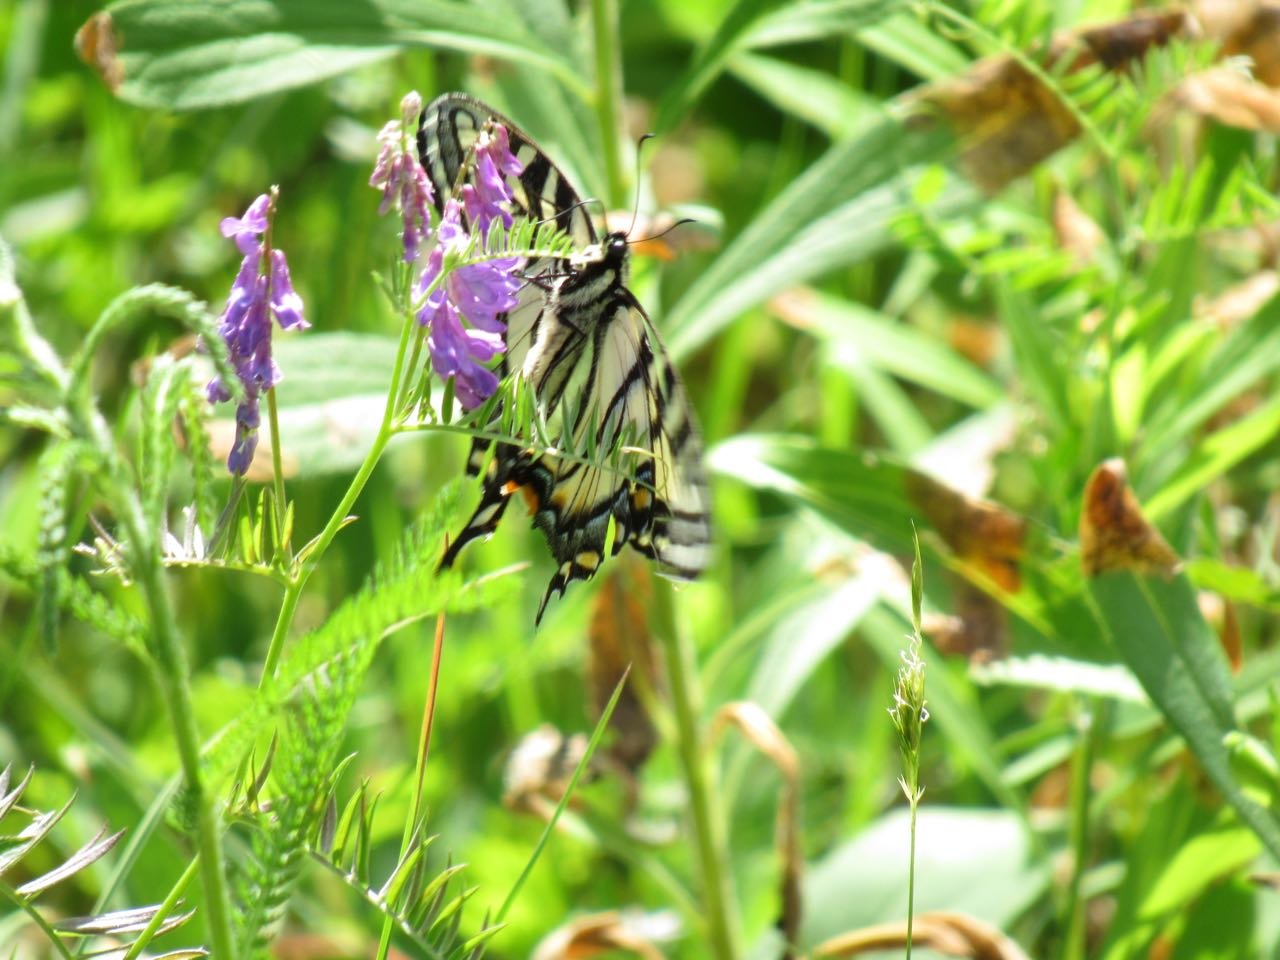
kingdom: Animalia
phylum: Arthropoda
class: Insecta
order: Lepidoptera
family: Papilionidae
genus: Pterourus
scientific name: Pterourus canadensis
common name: Canadian Tiger Swallowtail
